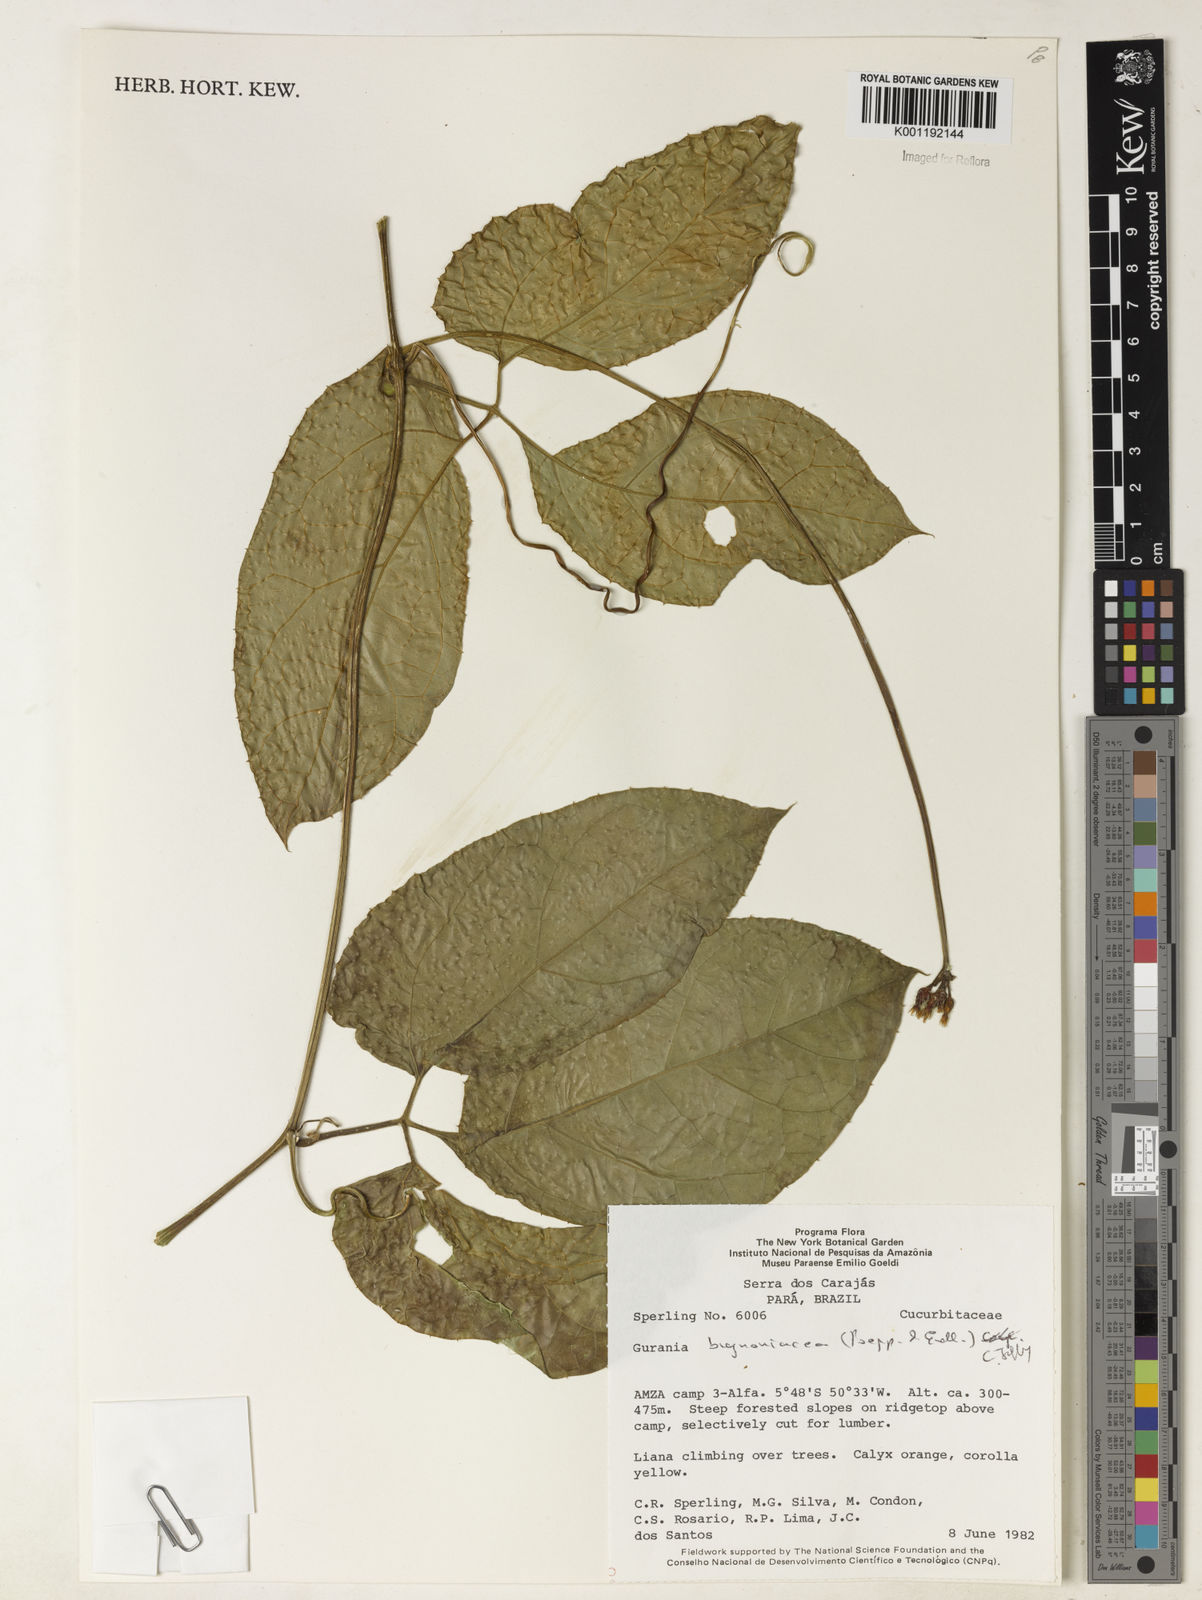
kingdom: Plantae
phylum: Tracheophyta
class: Magnoliopsida
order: Cucurbitales
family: Cucurbitaceae
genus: Gurania
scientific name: Gurania bignoniacea
